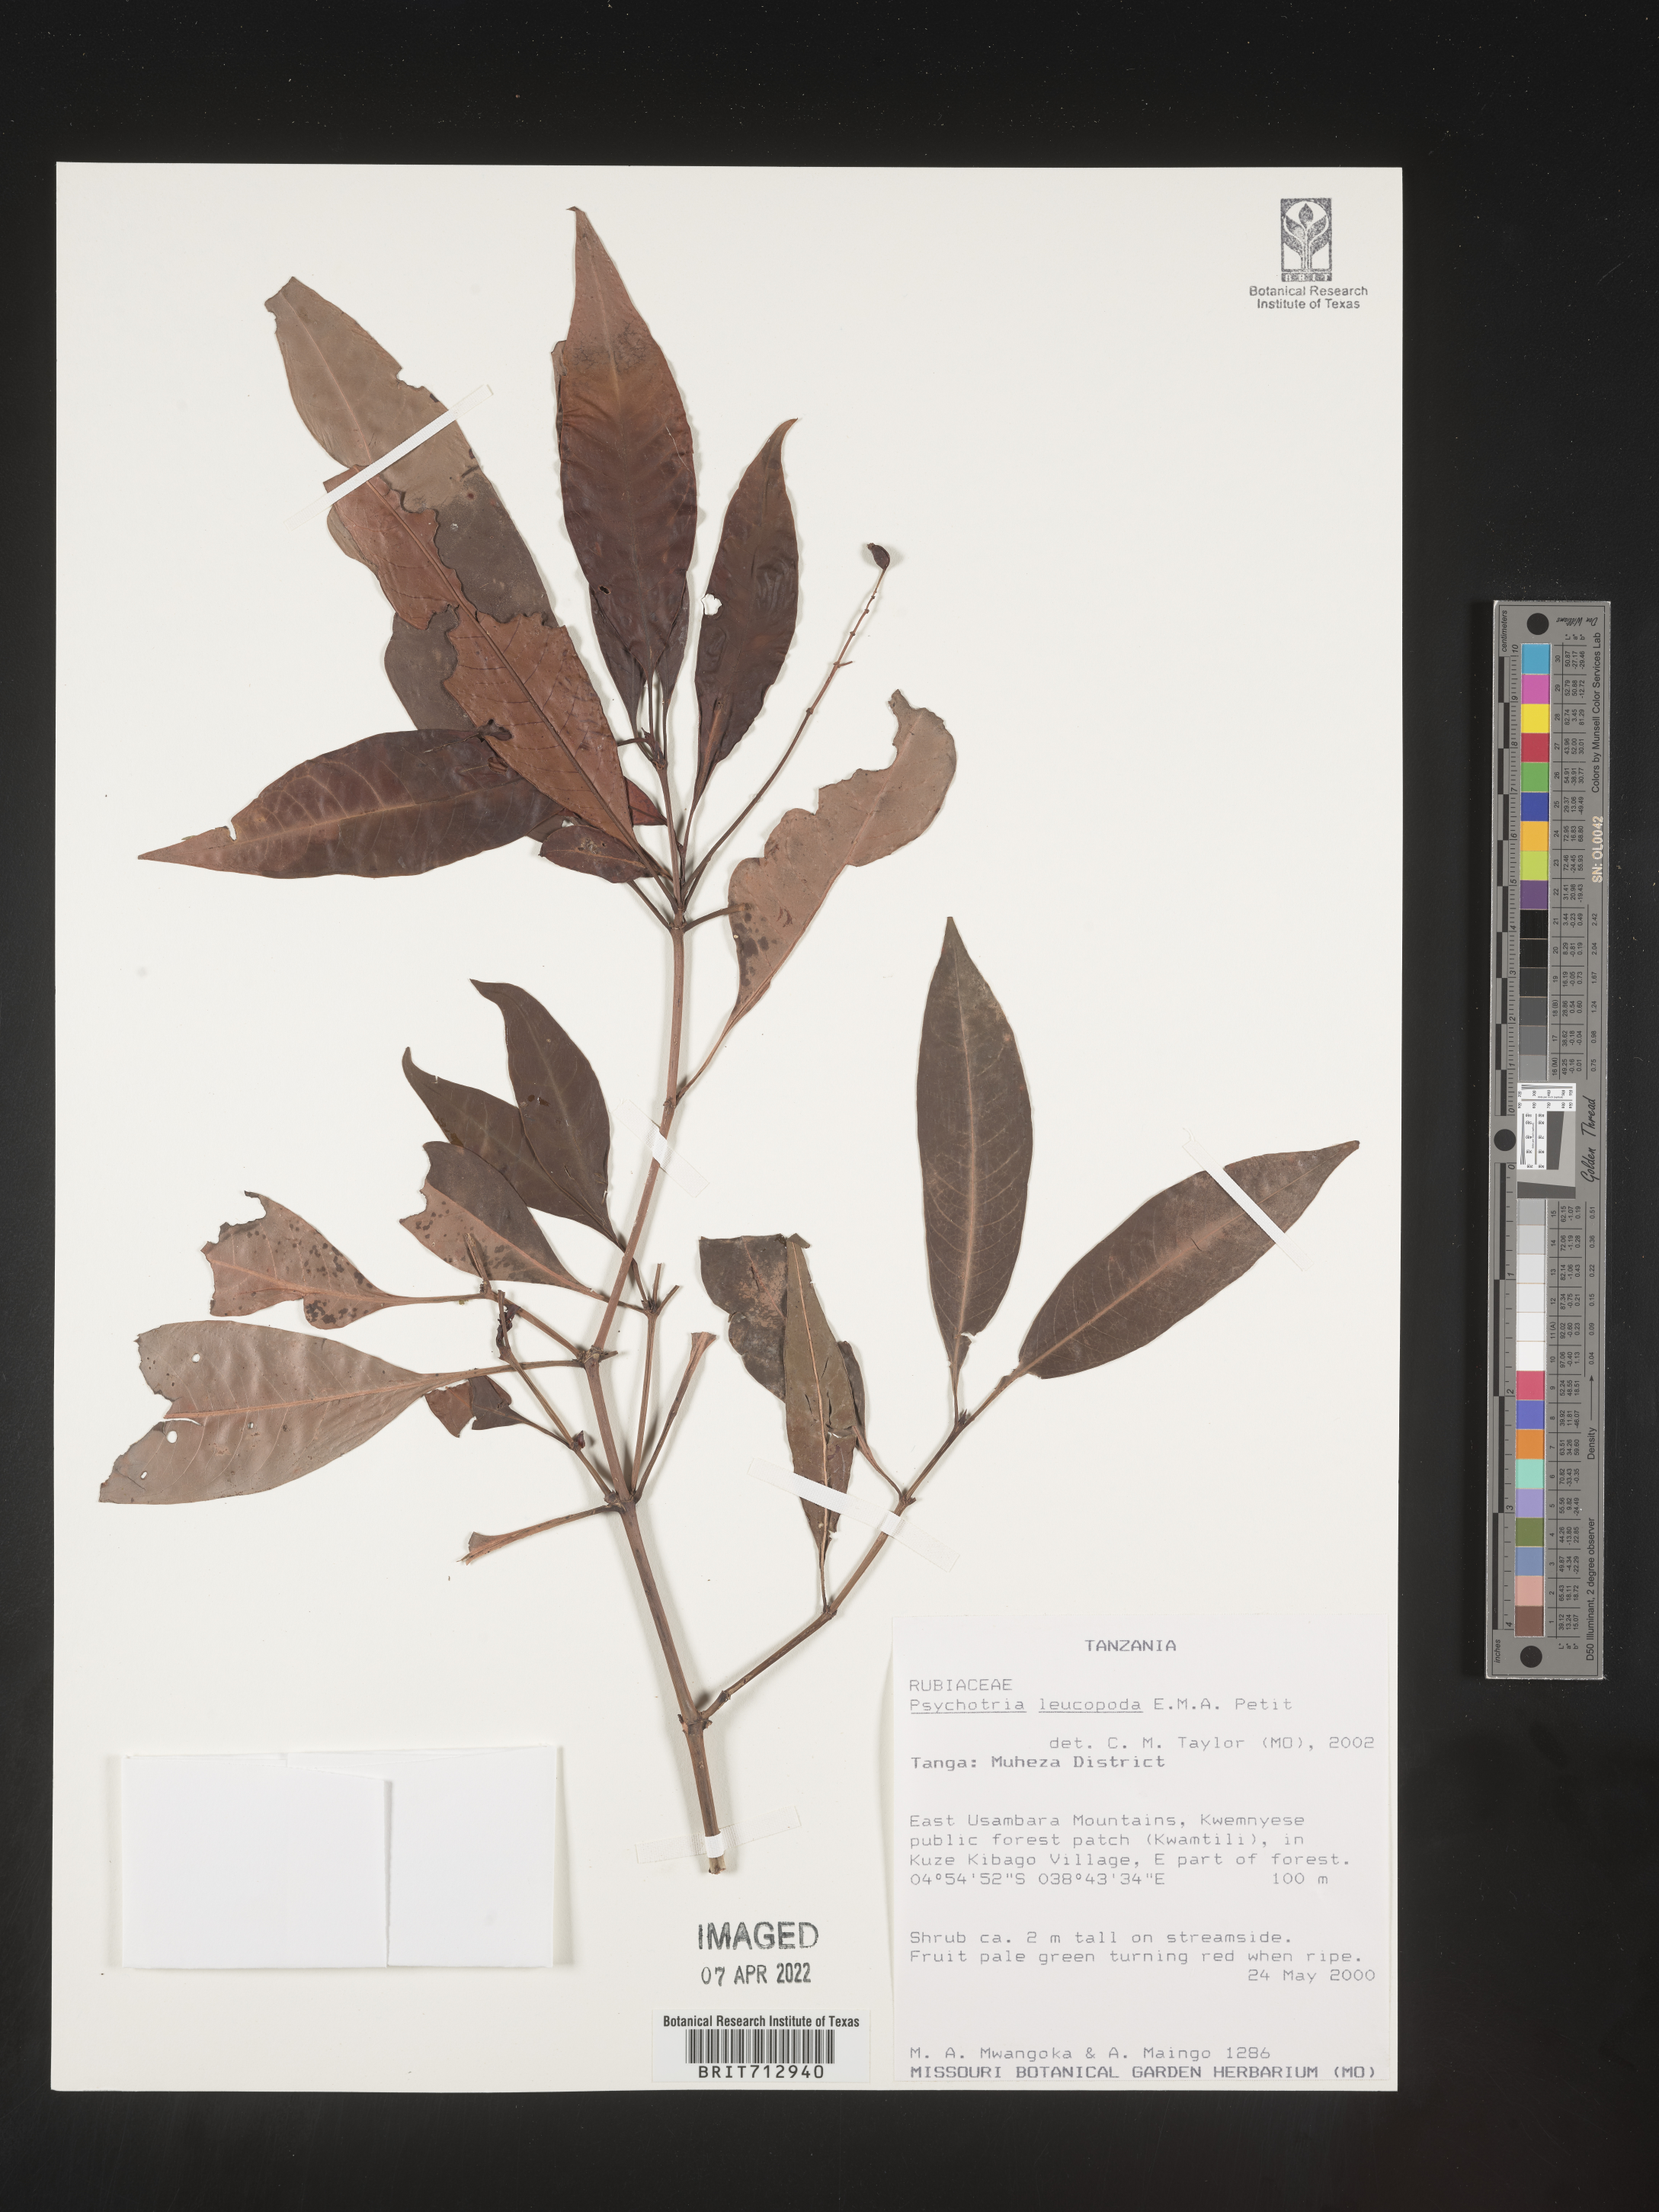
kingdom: Plantae
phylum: Tracheophyta
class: Magnoliopsida
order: Gentianales
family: Rubiaceae
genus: Psychotria
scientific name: Psychotria
